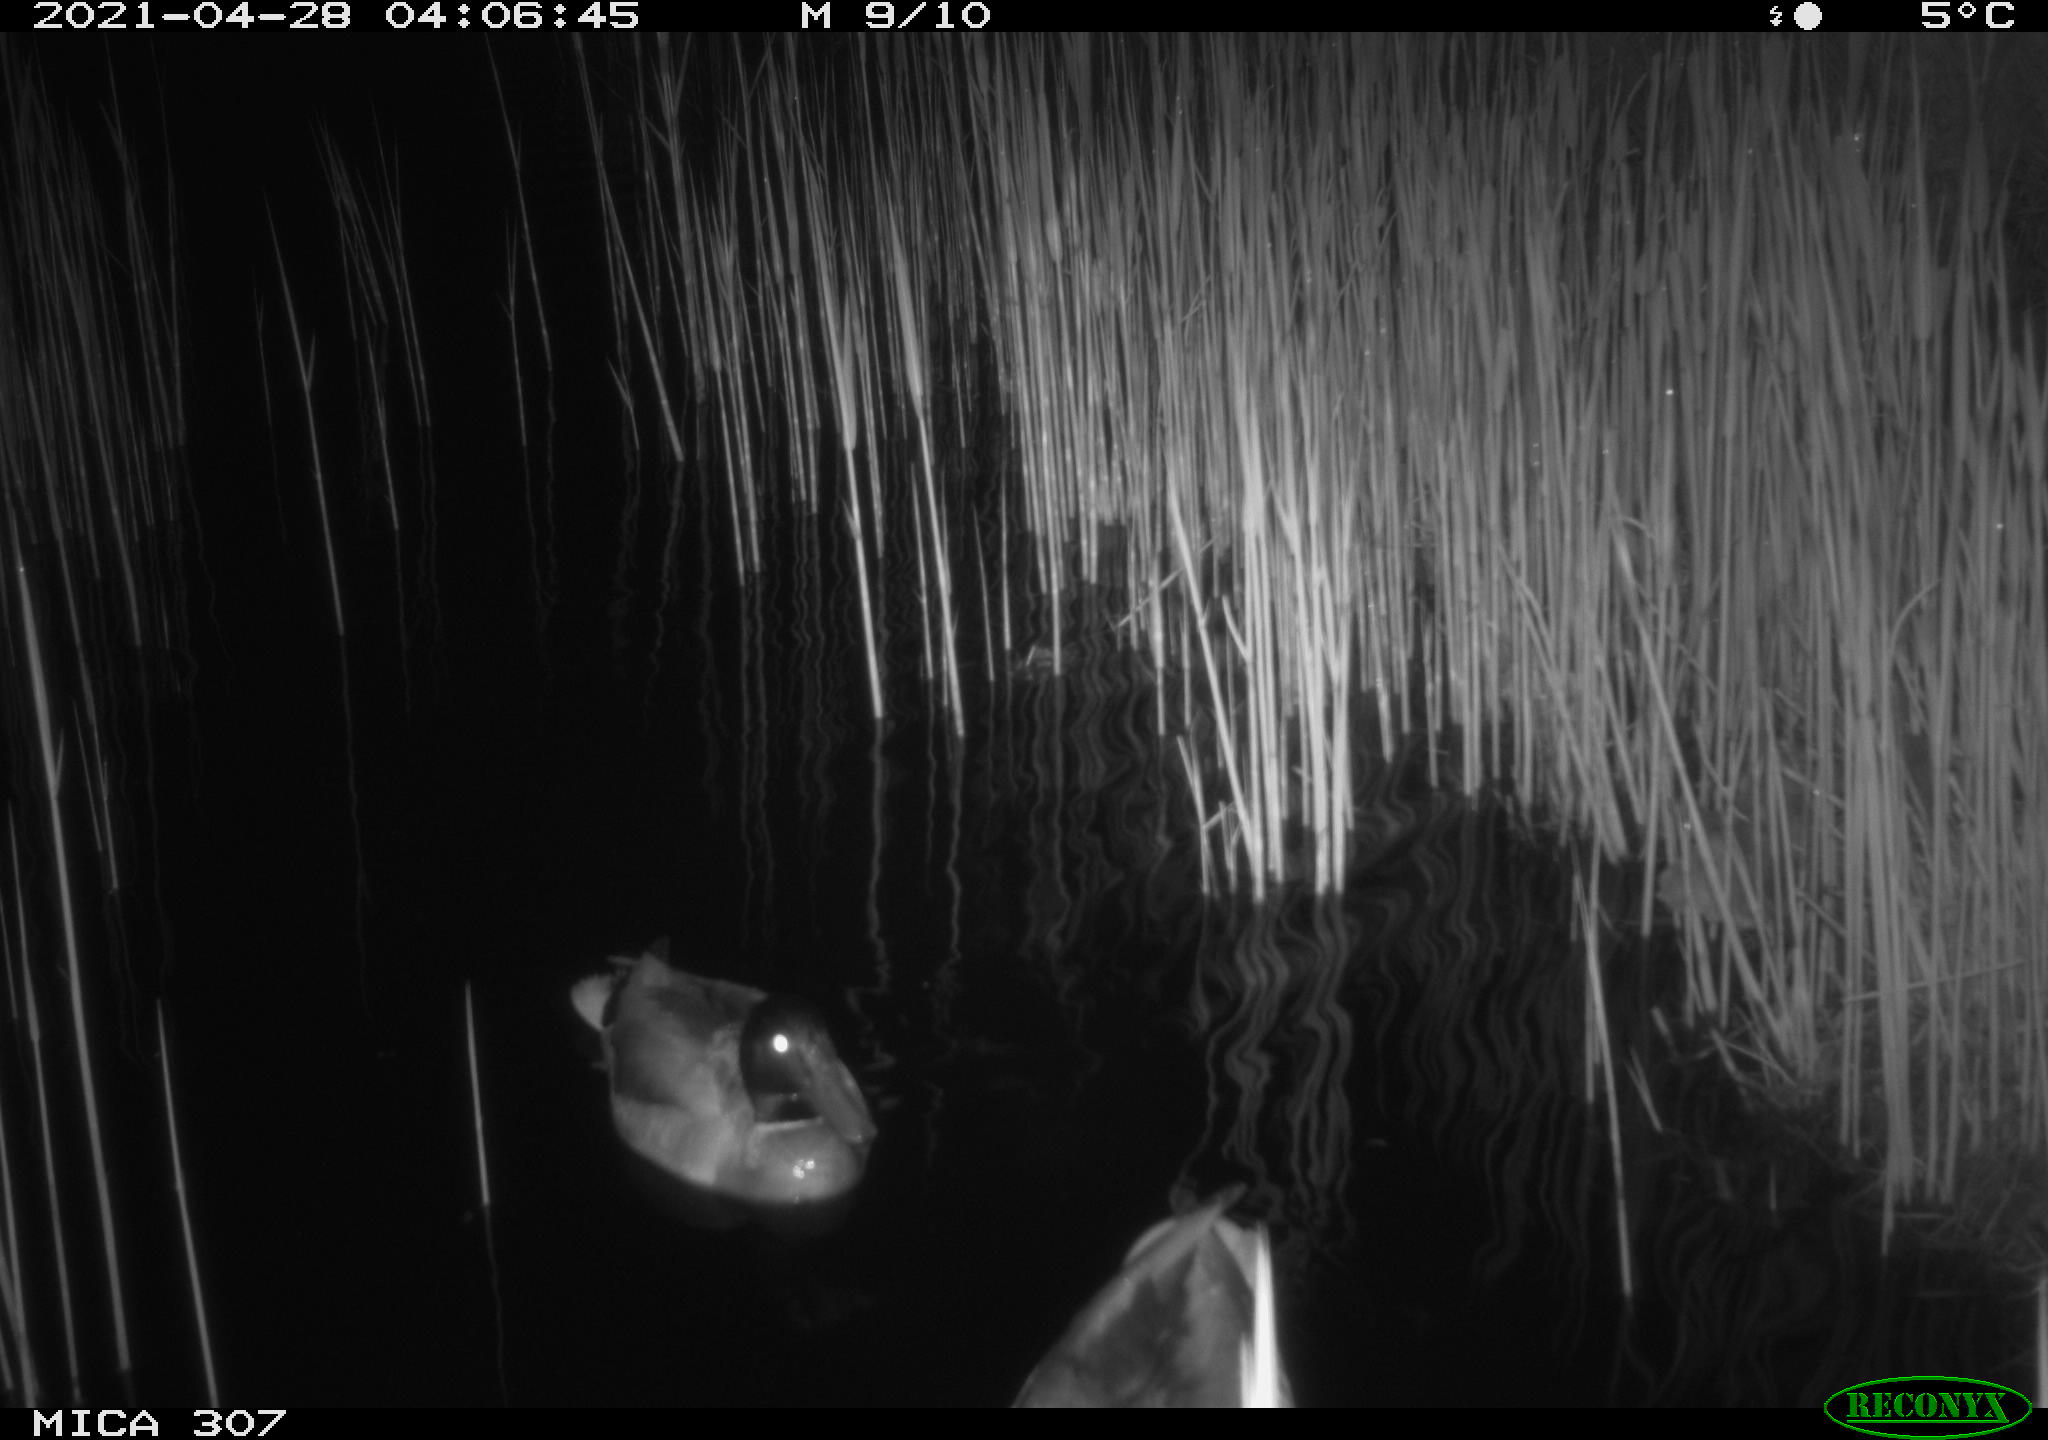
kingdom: Animalia
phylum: Chordata
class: Aves
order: Anseriformes
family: Anatidae
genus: Anas
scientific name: Anas platyrhynchos
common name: Mallard
